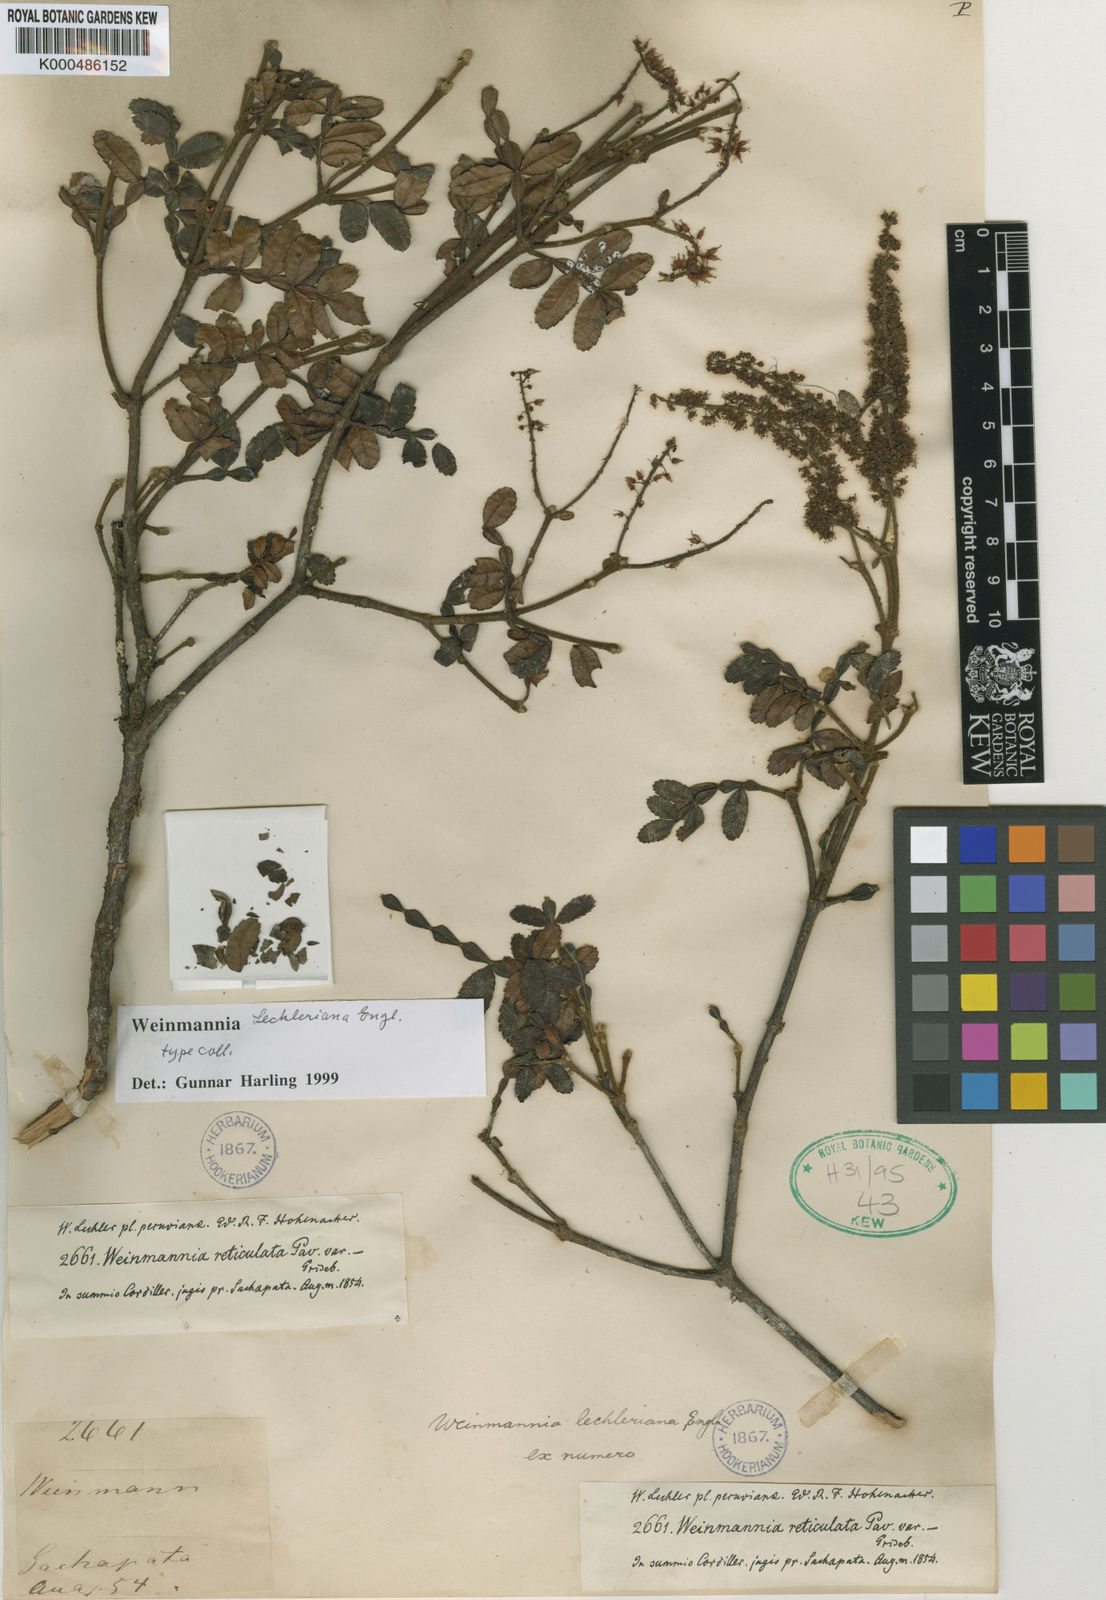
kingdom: Plantae
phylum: Tracheophyta
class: Magnoliopsida
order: Oxalidales
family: Cunoniaceae
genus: Weinmannia
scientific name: Weinmannia lechleriana
